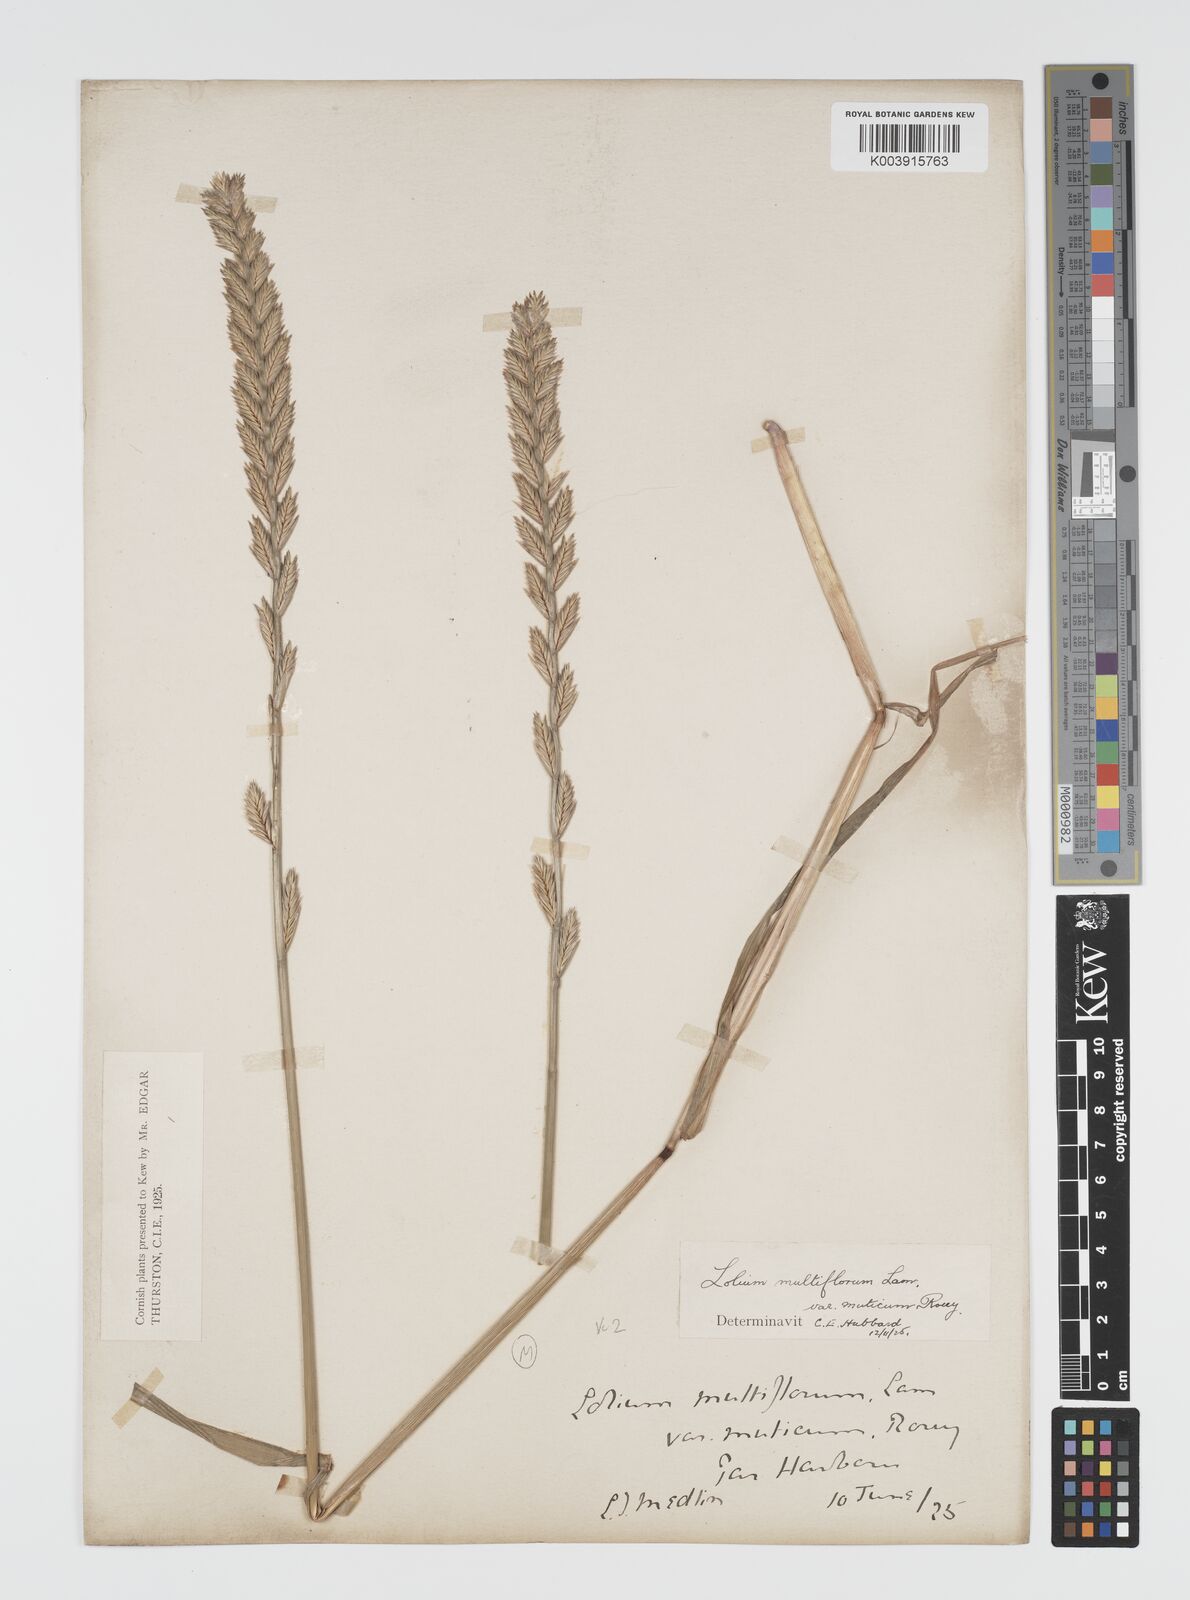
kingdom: Plantae
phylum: Tracheophyta
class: Liliopsida
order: Poales
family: Poaceae
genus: Lolium
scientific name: Lolium multiflorum
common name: Annual ryegrass
